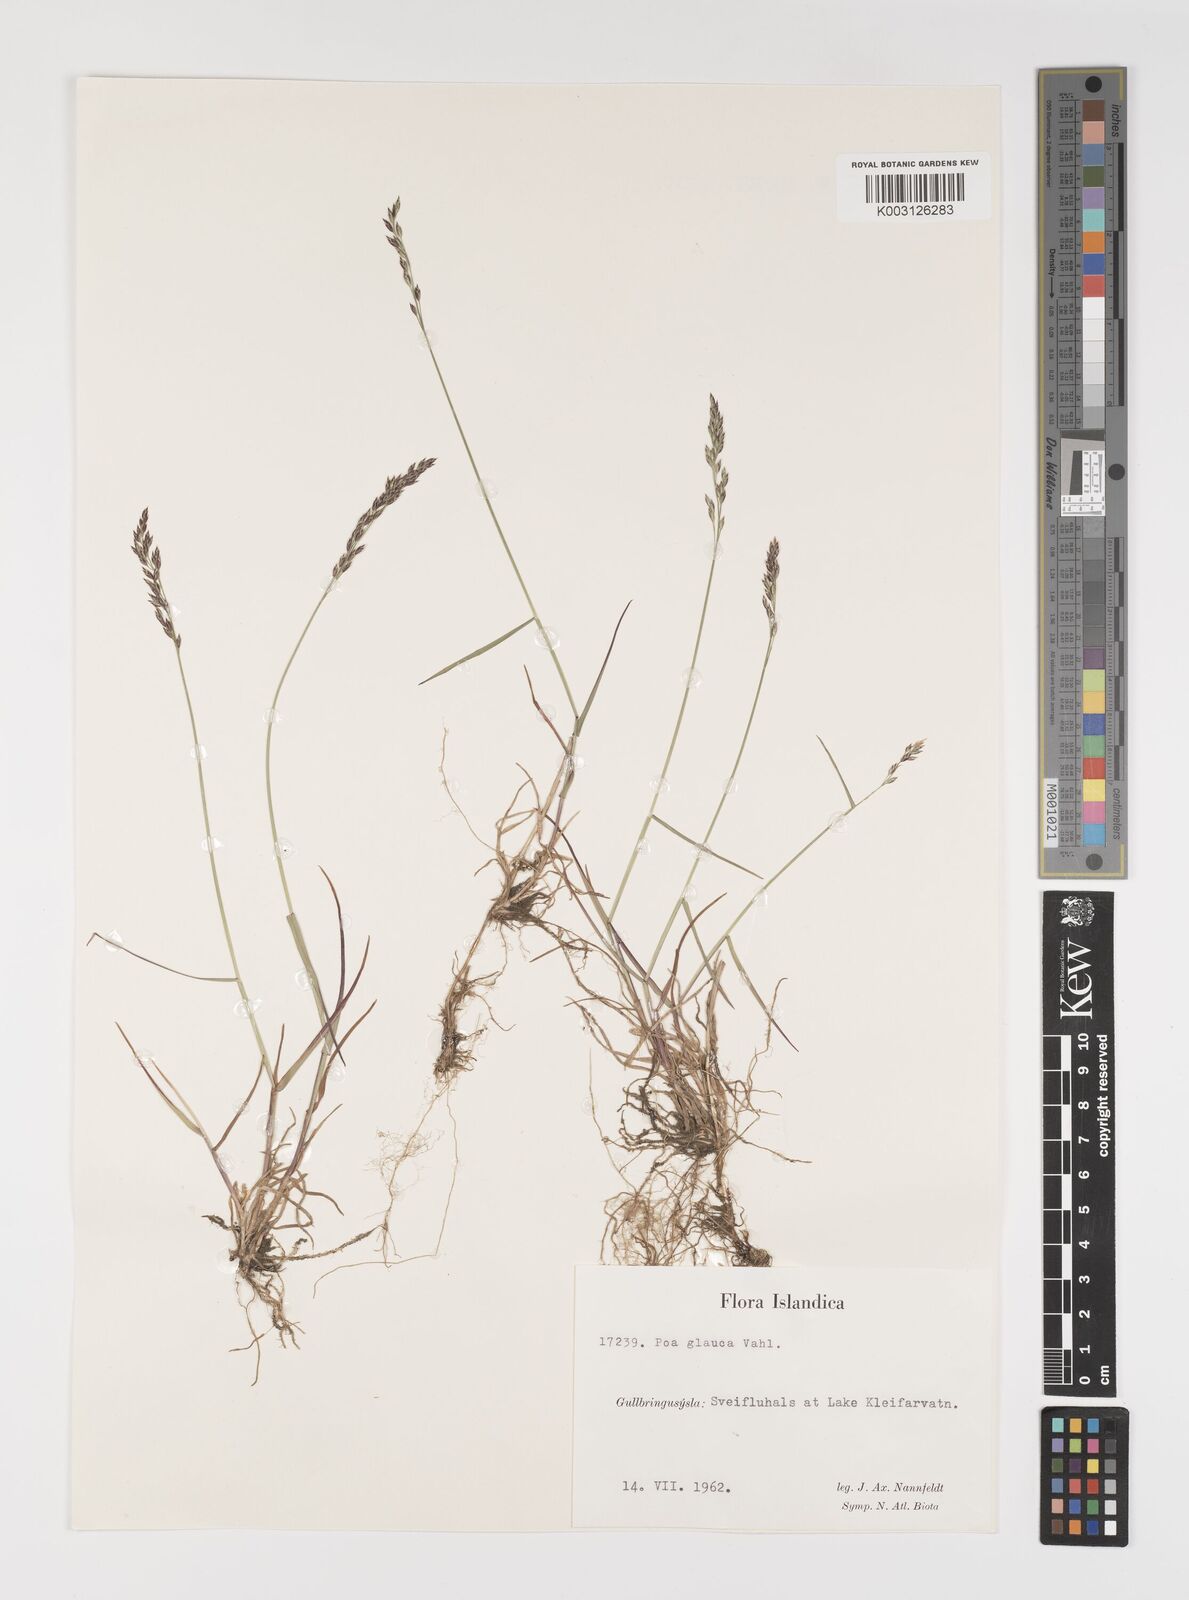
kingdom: Plantae
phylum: Tracheophyta
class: Liliopsida
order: Poales
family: Poaceae
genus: Poa
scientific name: Poa glauca
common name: Glaucous bluegrass
